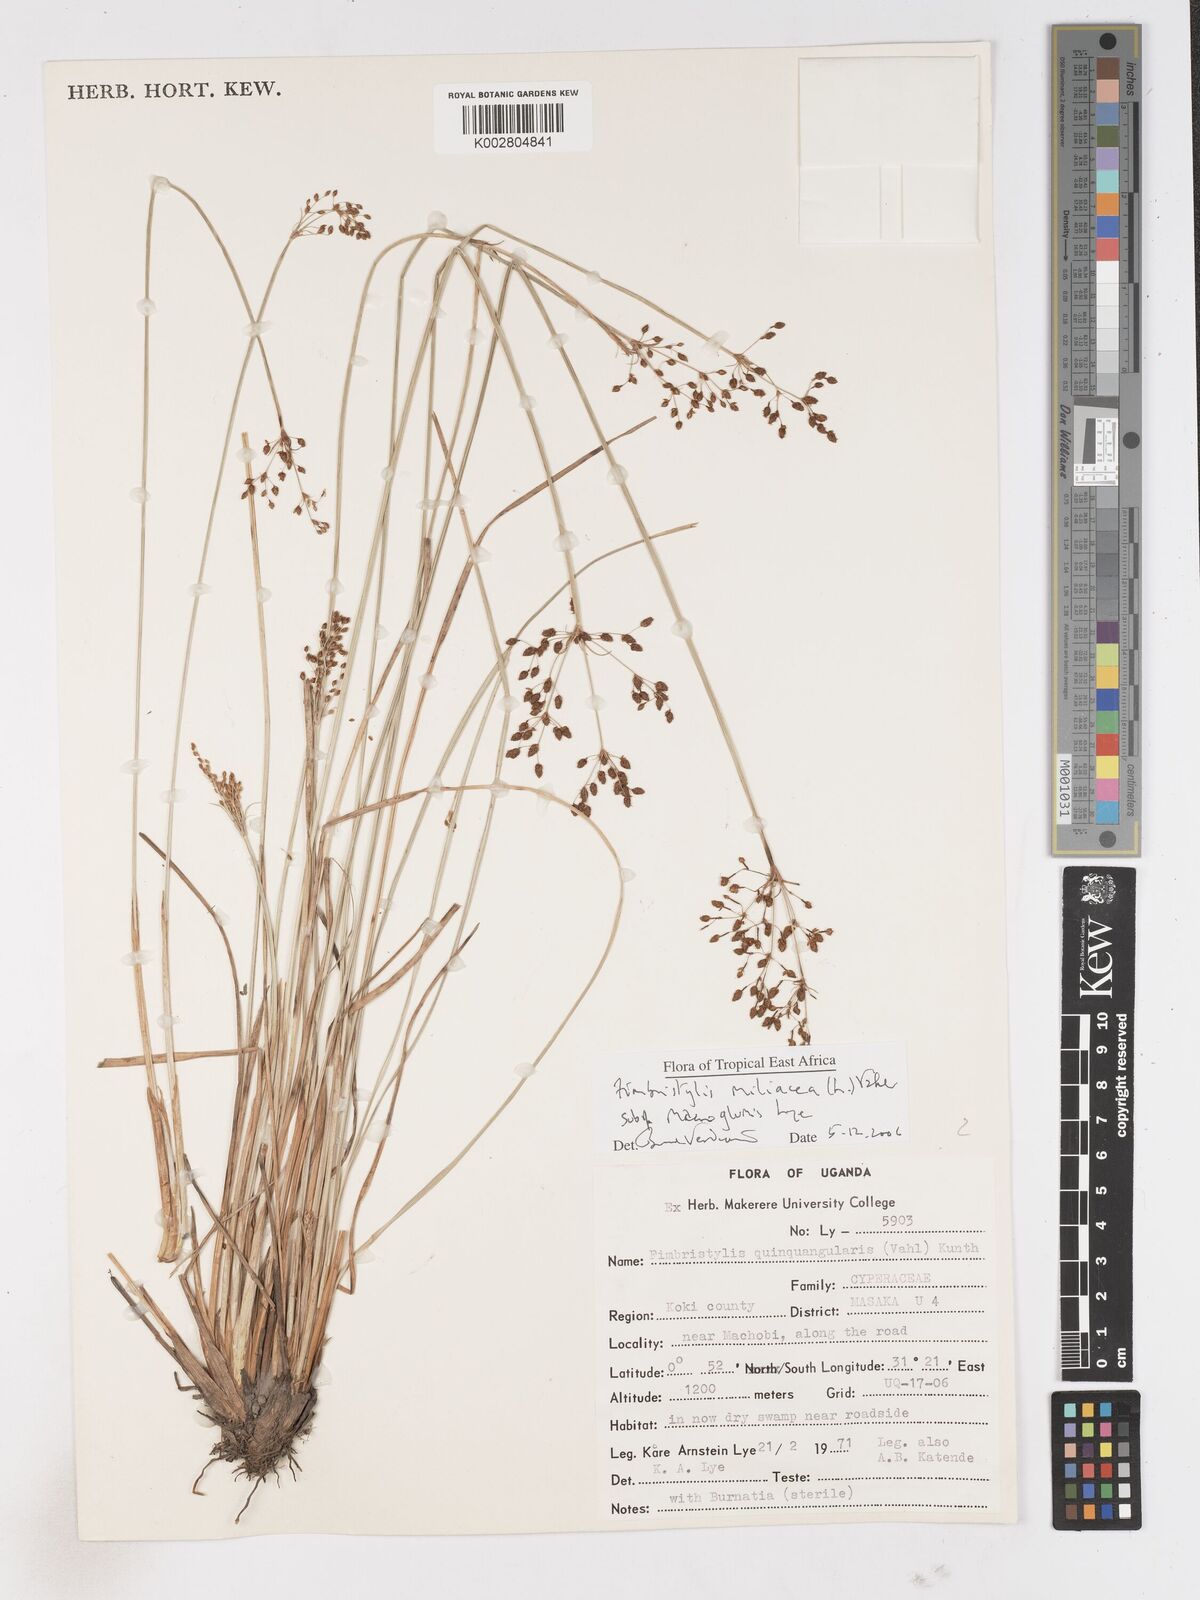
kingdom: Plantae
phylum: Tracheophyta
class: Liliopsida
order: Poales
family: Cyperaceae
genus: Fimbristylis
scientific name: Fimbristylis quinquangularis
